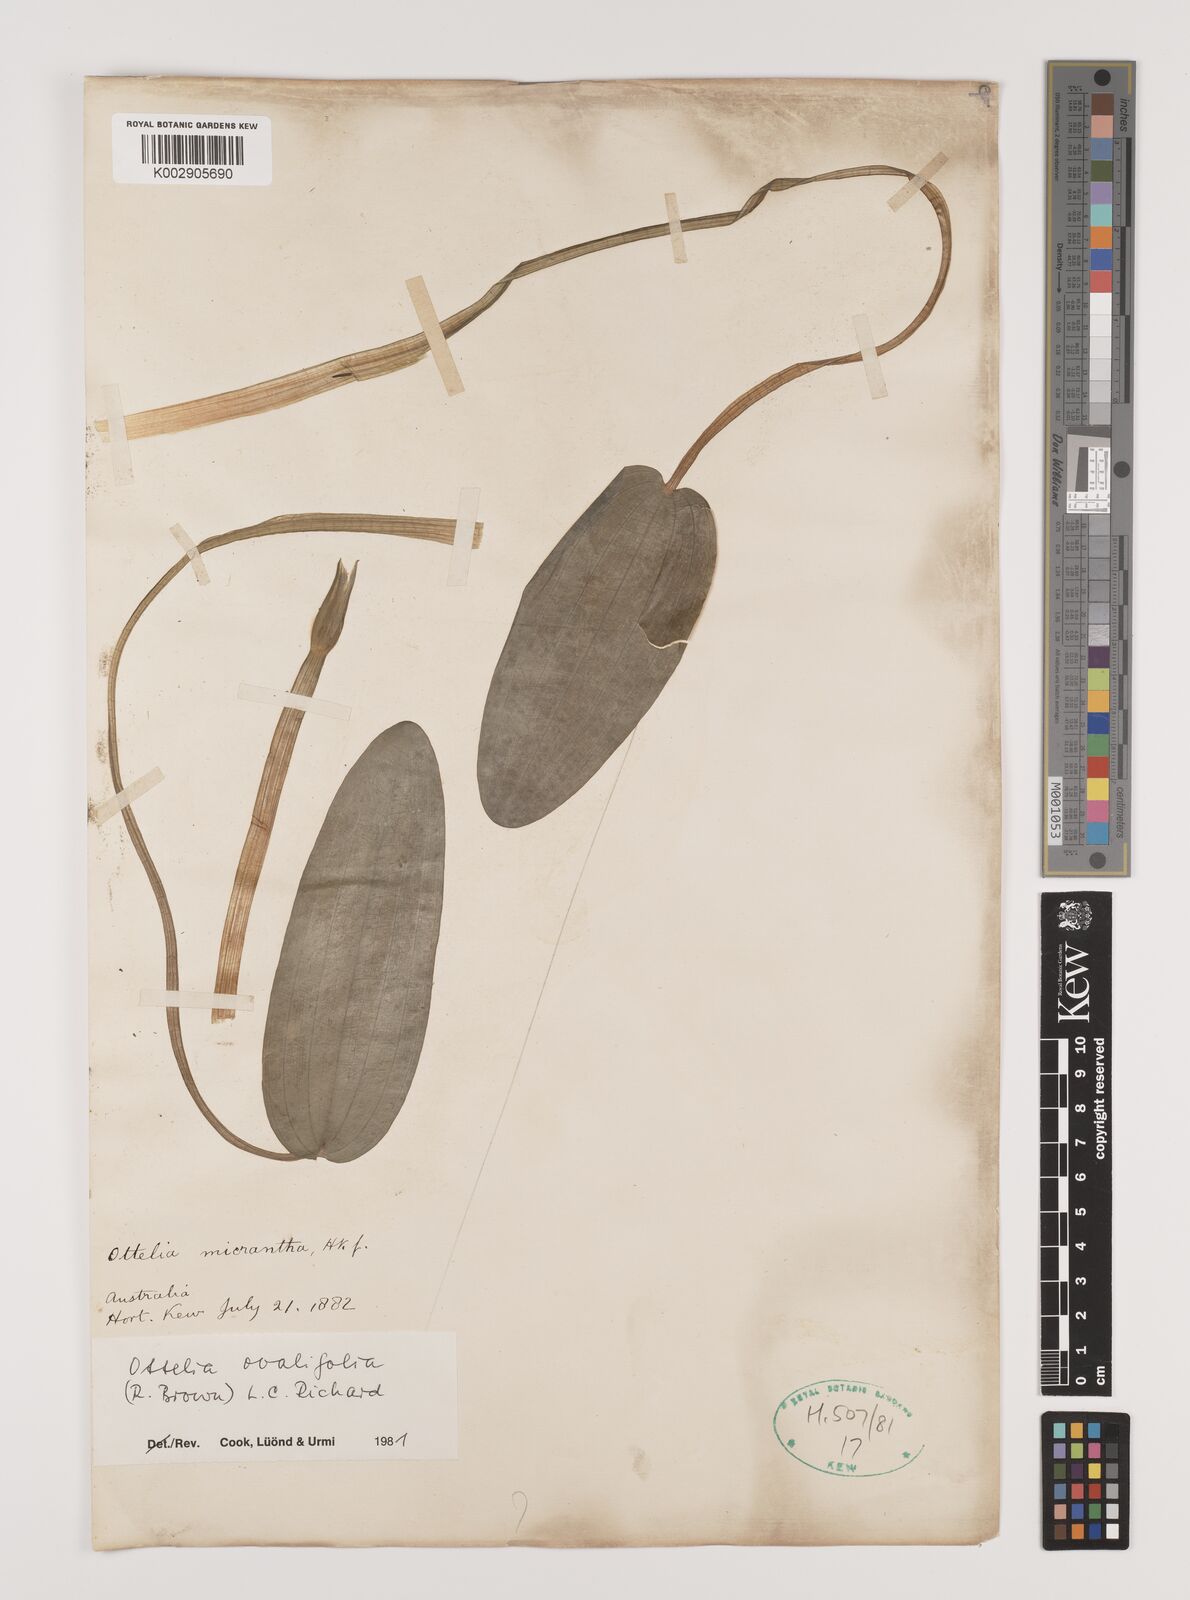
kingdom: Plantae
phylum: Tracheophyta
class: Liliopsida
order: Alismatales
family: Hydrocharitaceae
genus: Ottelia
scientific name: Ottelia ovalifolia
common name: Swamp-lily
